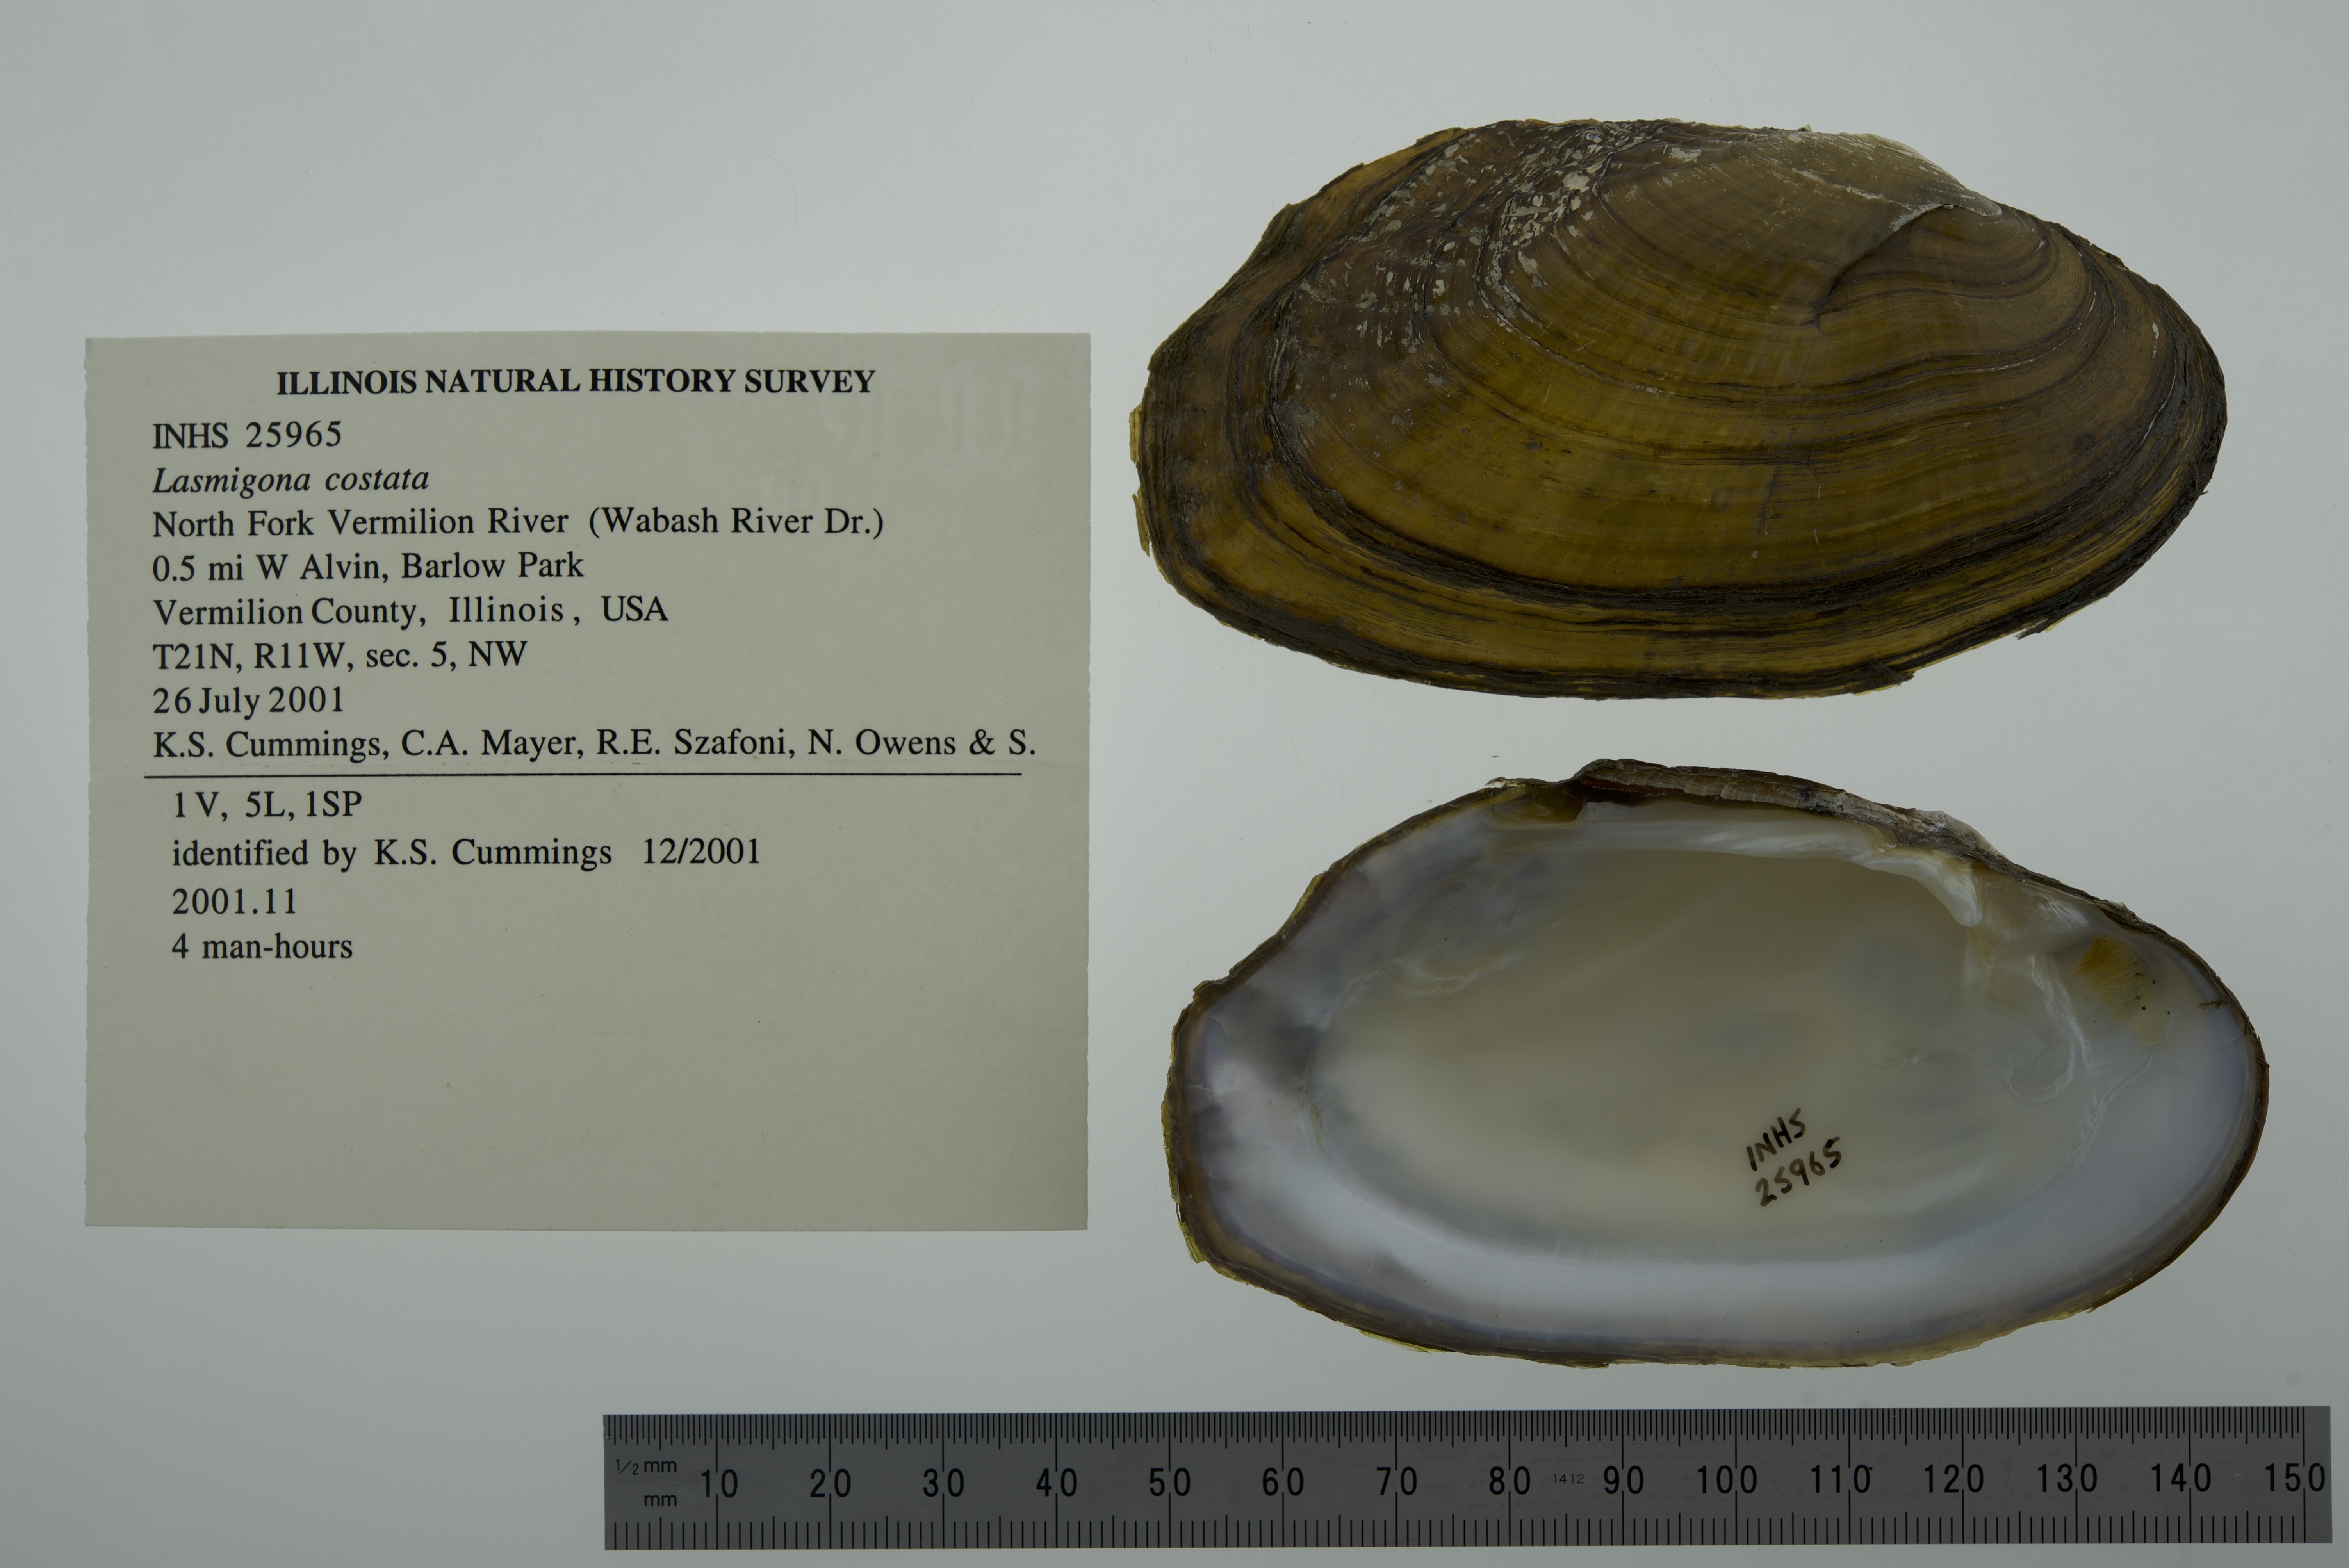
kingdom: Animalia
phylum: Mollusca
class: Bivalvia
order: Unionida
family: Unionidae
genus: Lasmigona
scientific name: Lasmigona costata
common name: Flutedshell
